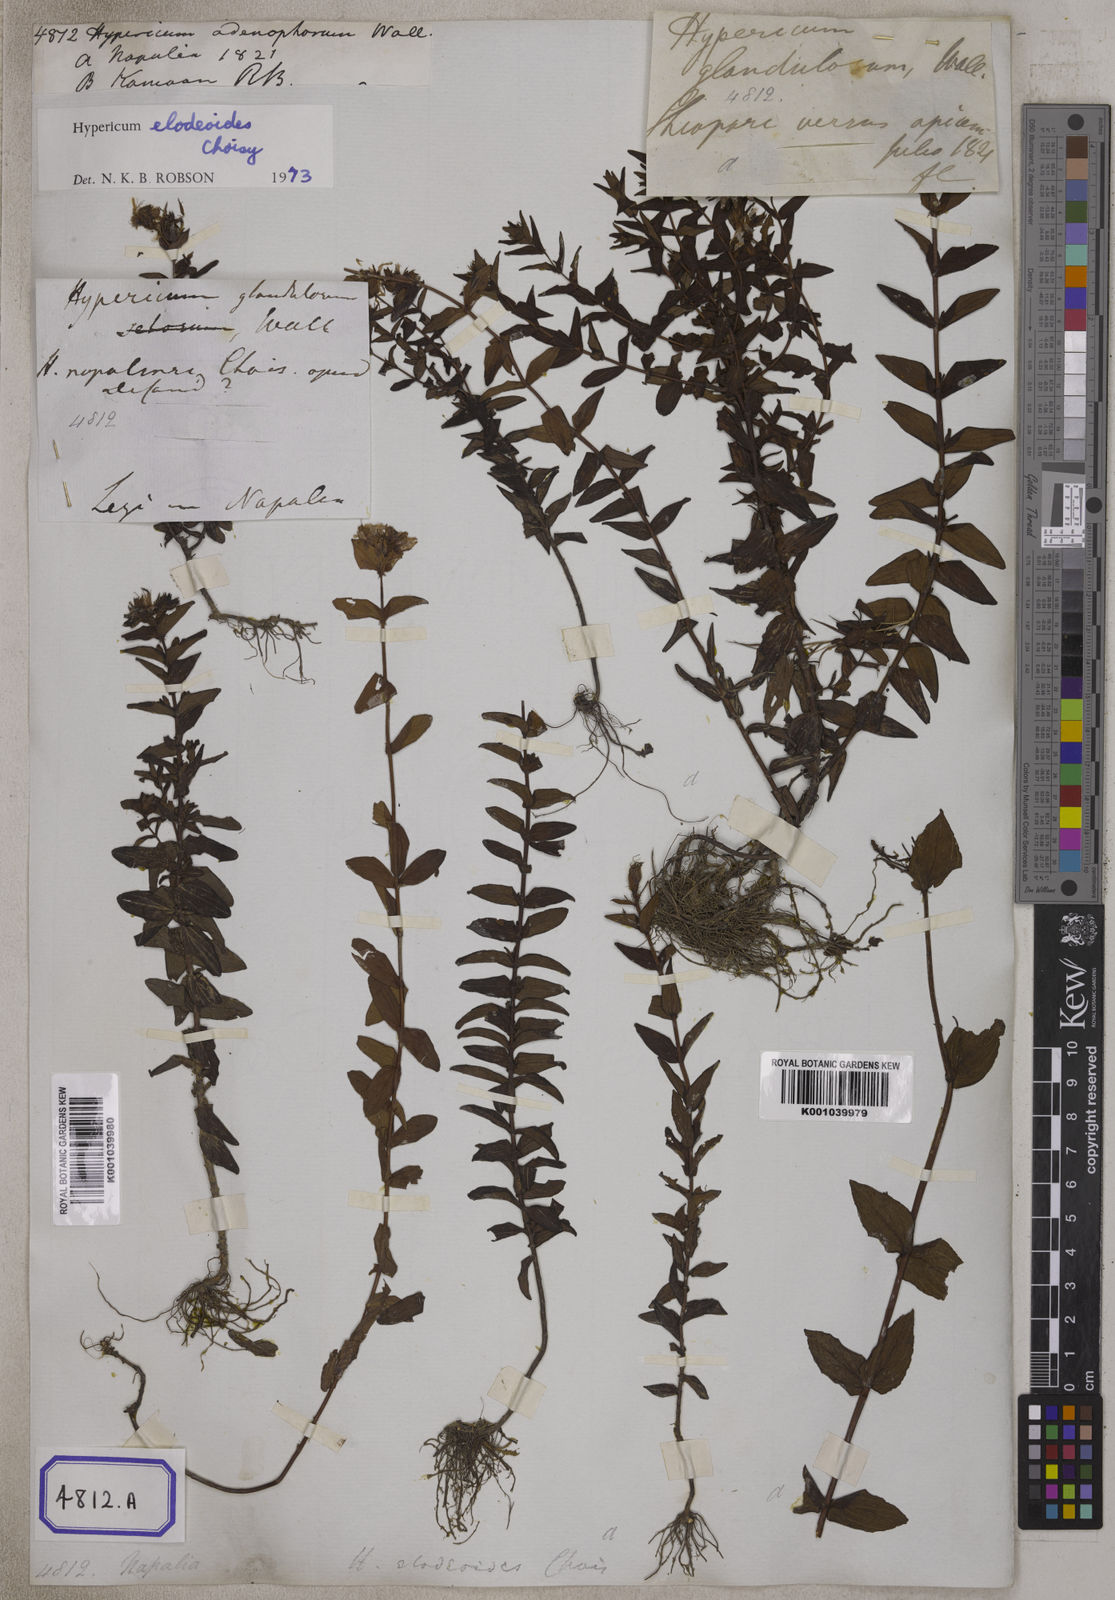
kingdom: Plantae
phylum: Tracheophyta
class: Magnoliopsida
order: Malpighiales
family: Hypericaceae
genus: Hypericum
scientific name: Hypericum elodeoides
